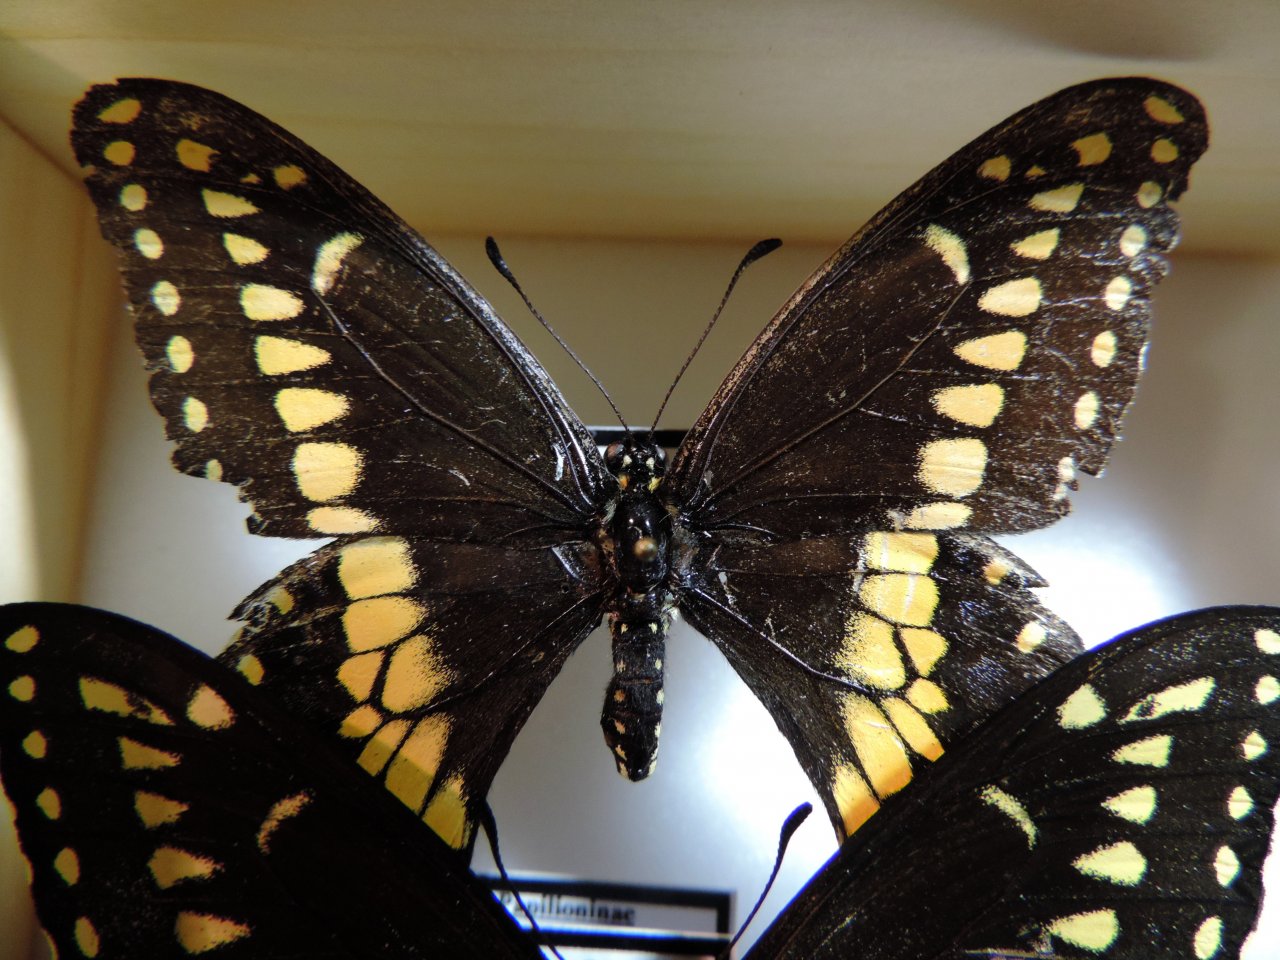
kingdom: Animalia
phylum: Arthropoda
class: Insecta
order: Lepidoptera
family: Papilionidae
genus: Papilio
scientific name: Papilio polyxenes
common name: Black Swallowtail
